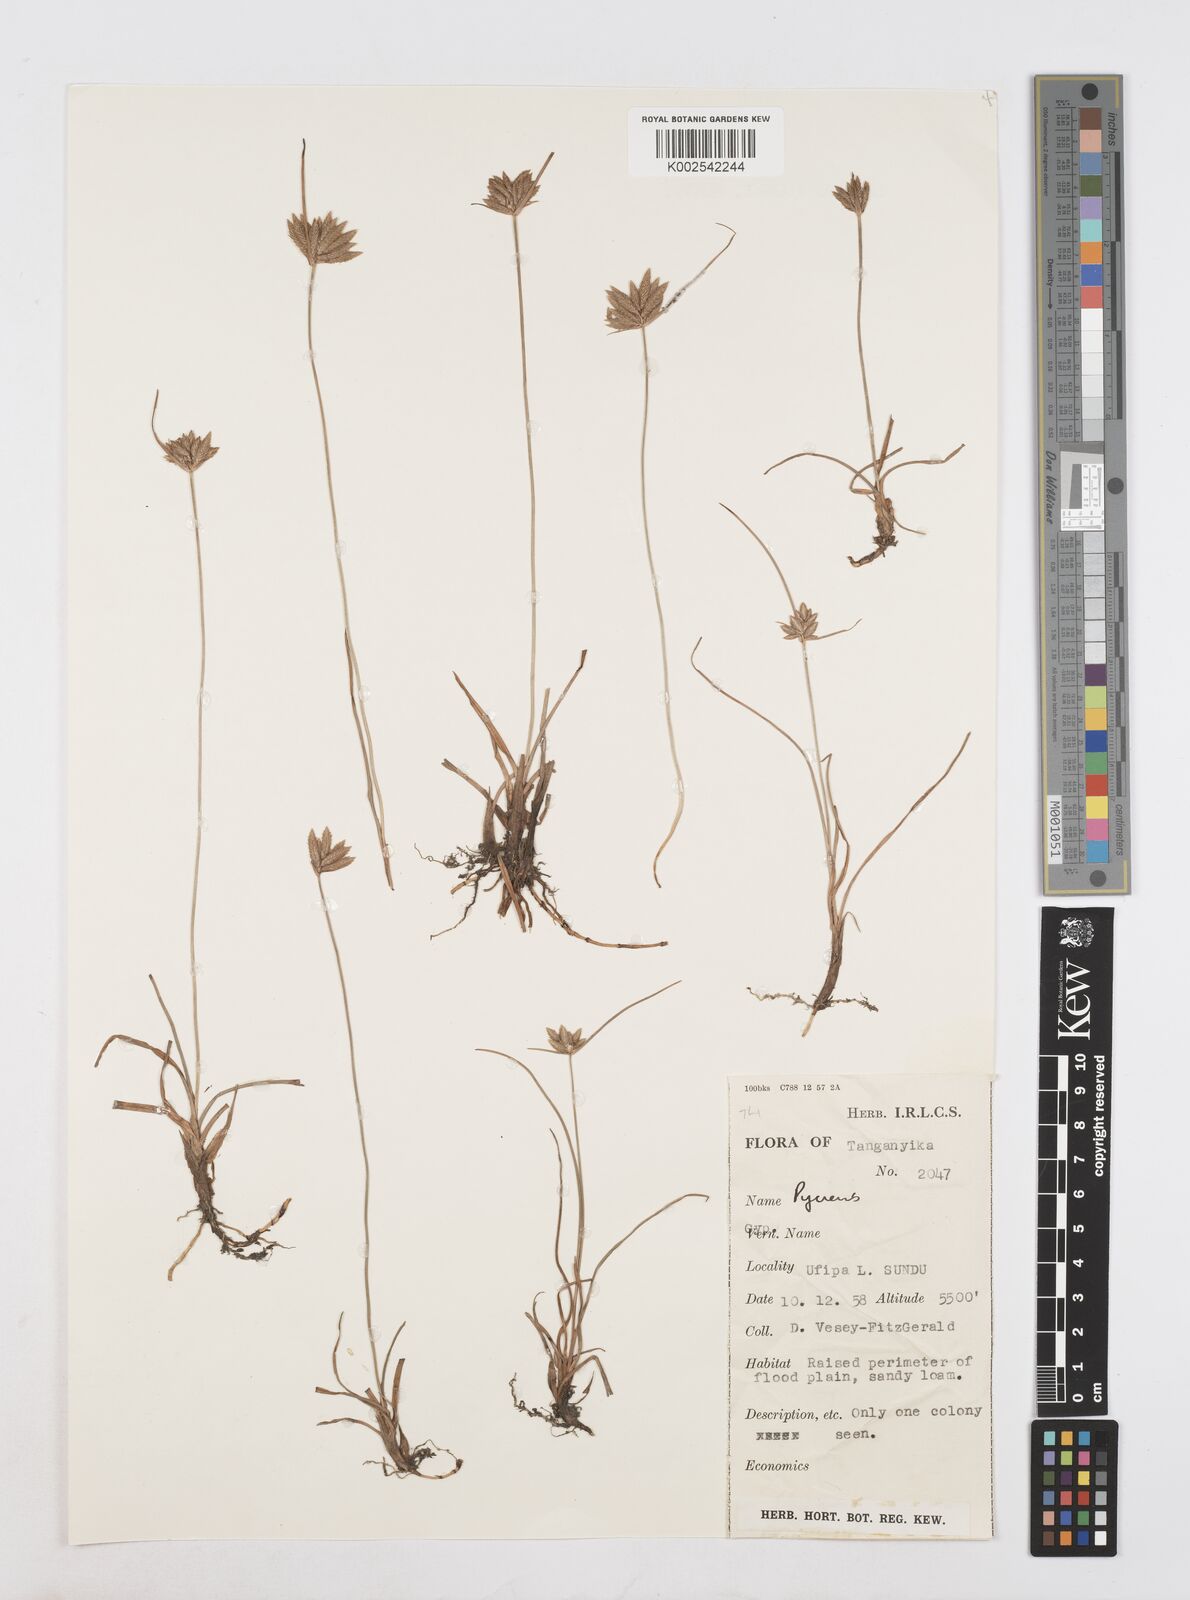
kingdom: Plantae
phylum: Tracheophyta
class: Liliopsida
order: Poales
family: Cyperaceae
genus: Cyperus
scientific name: Cyperus
